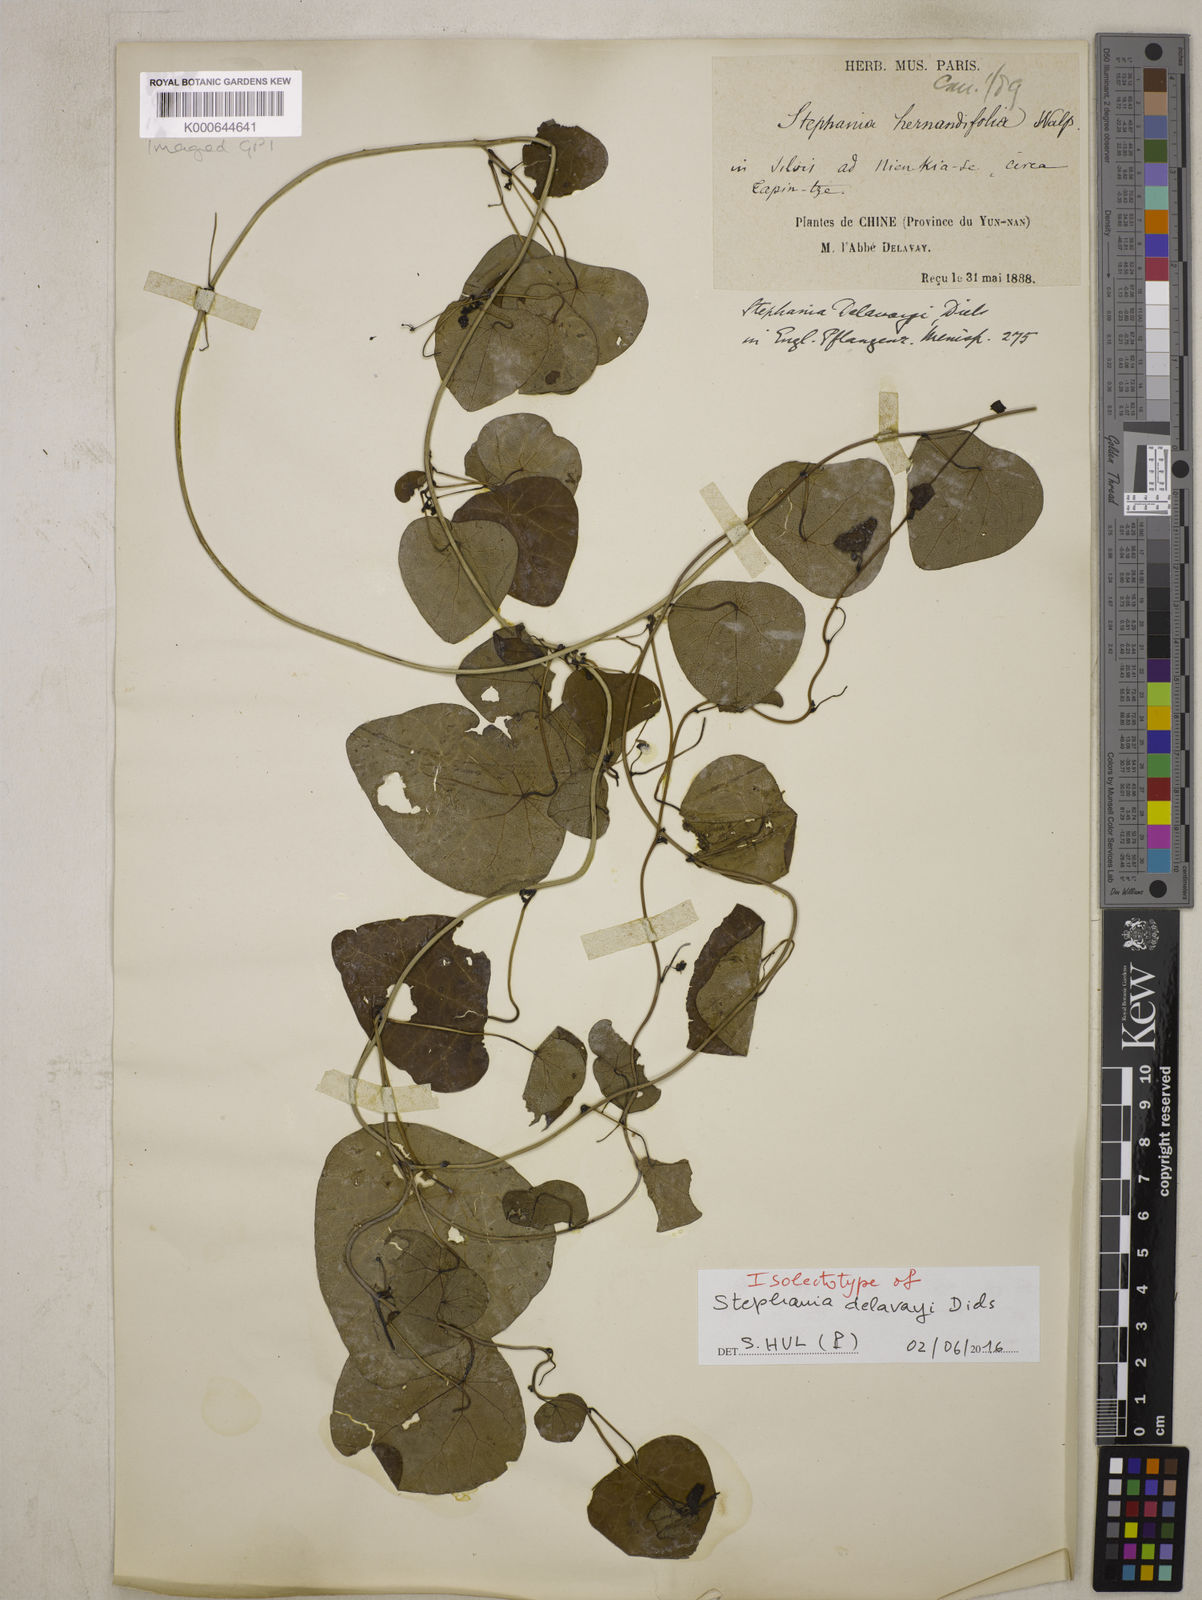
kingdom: Plantae
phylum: Tracheophyta
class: Magnoliopsida
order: Ranunculales
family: Menispermaceae
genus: Stephania
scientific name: Stephania delavayi
